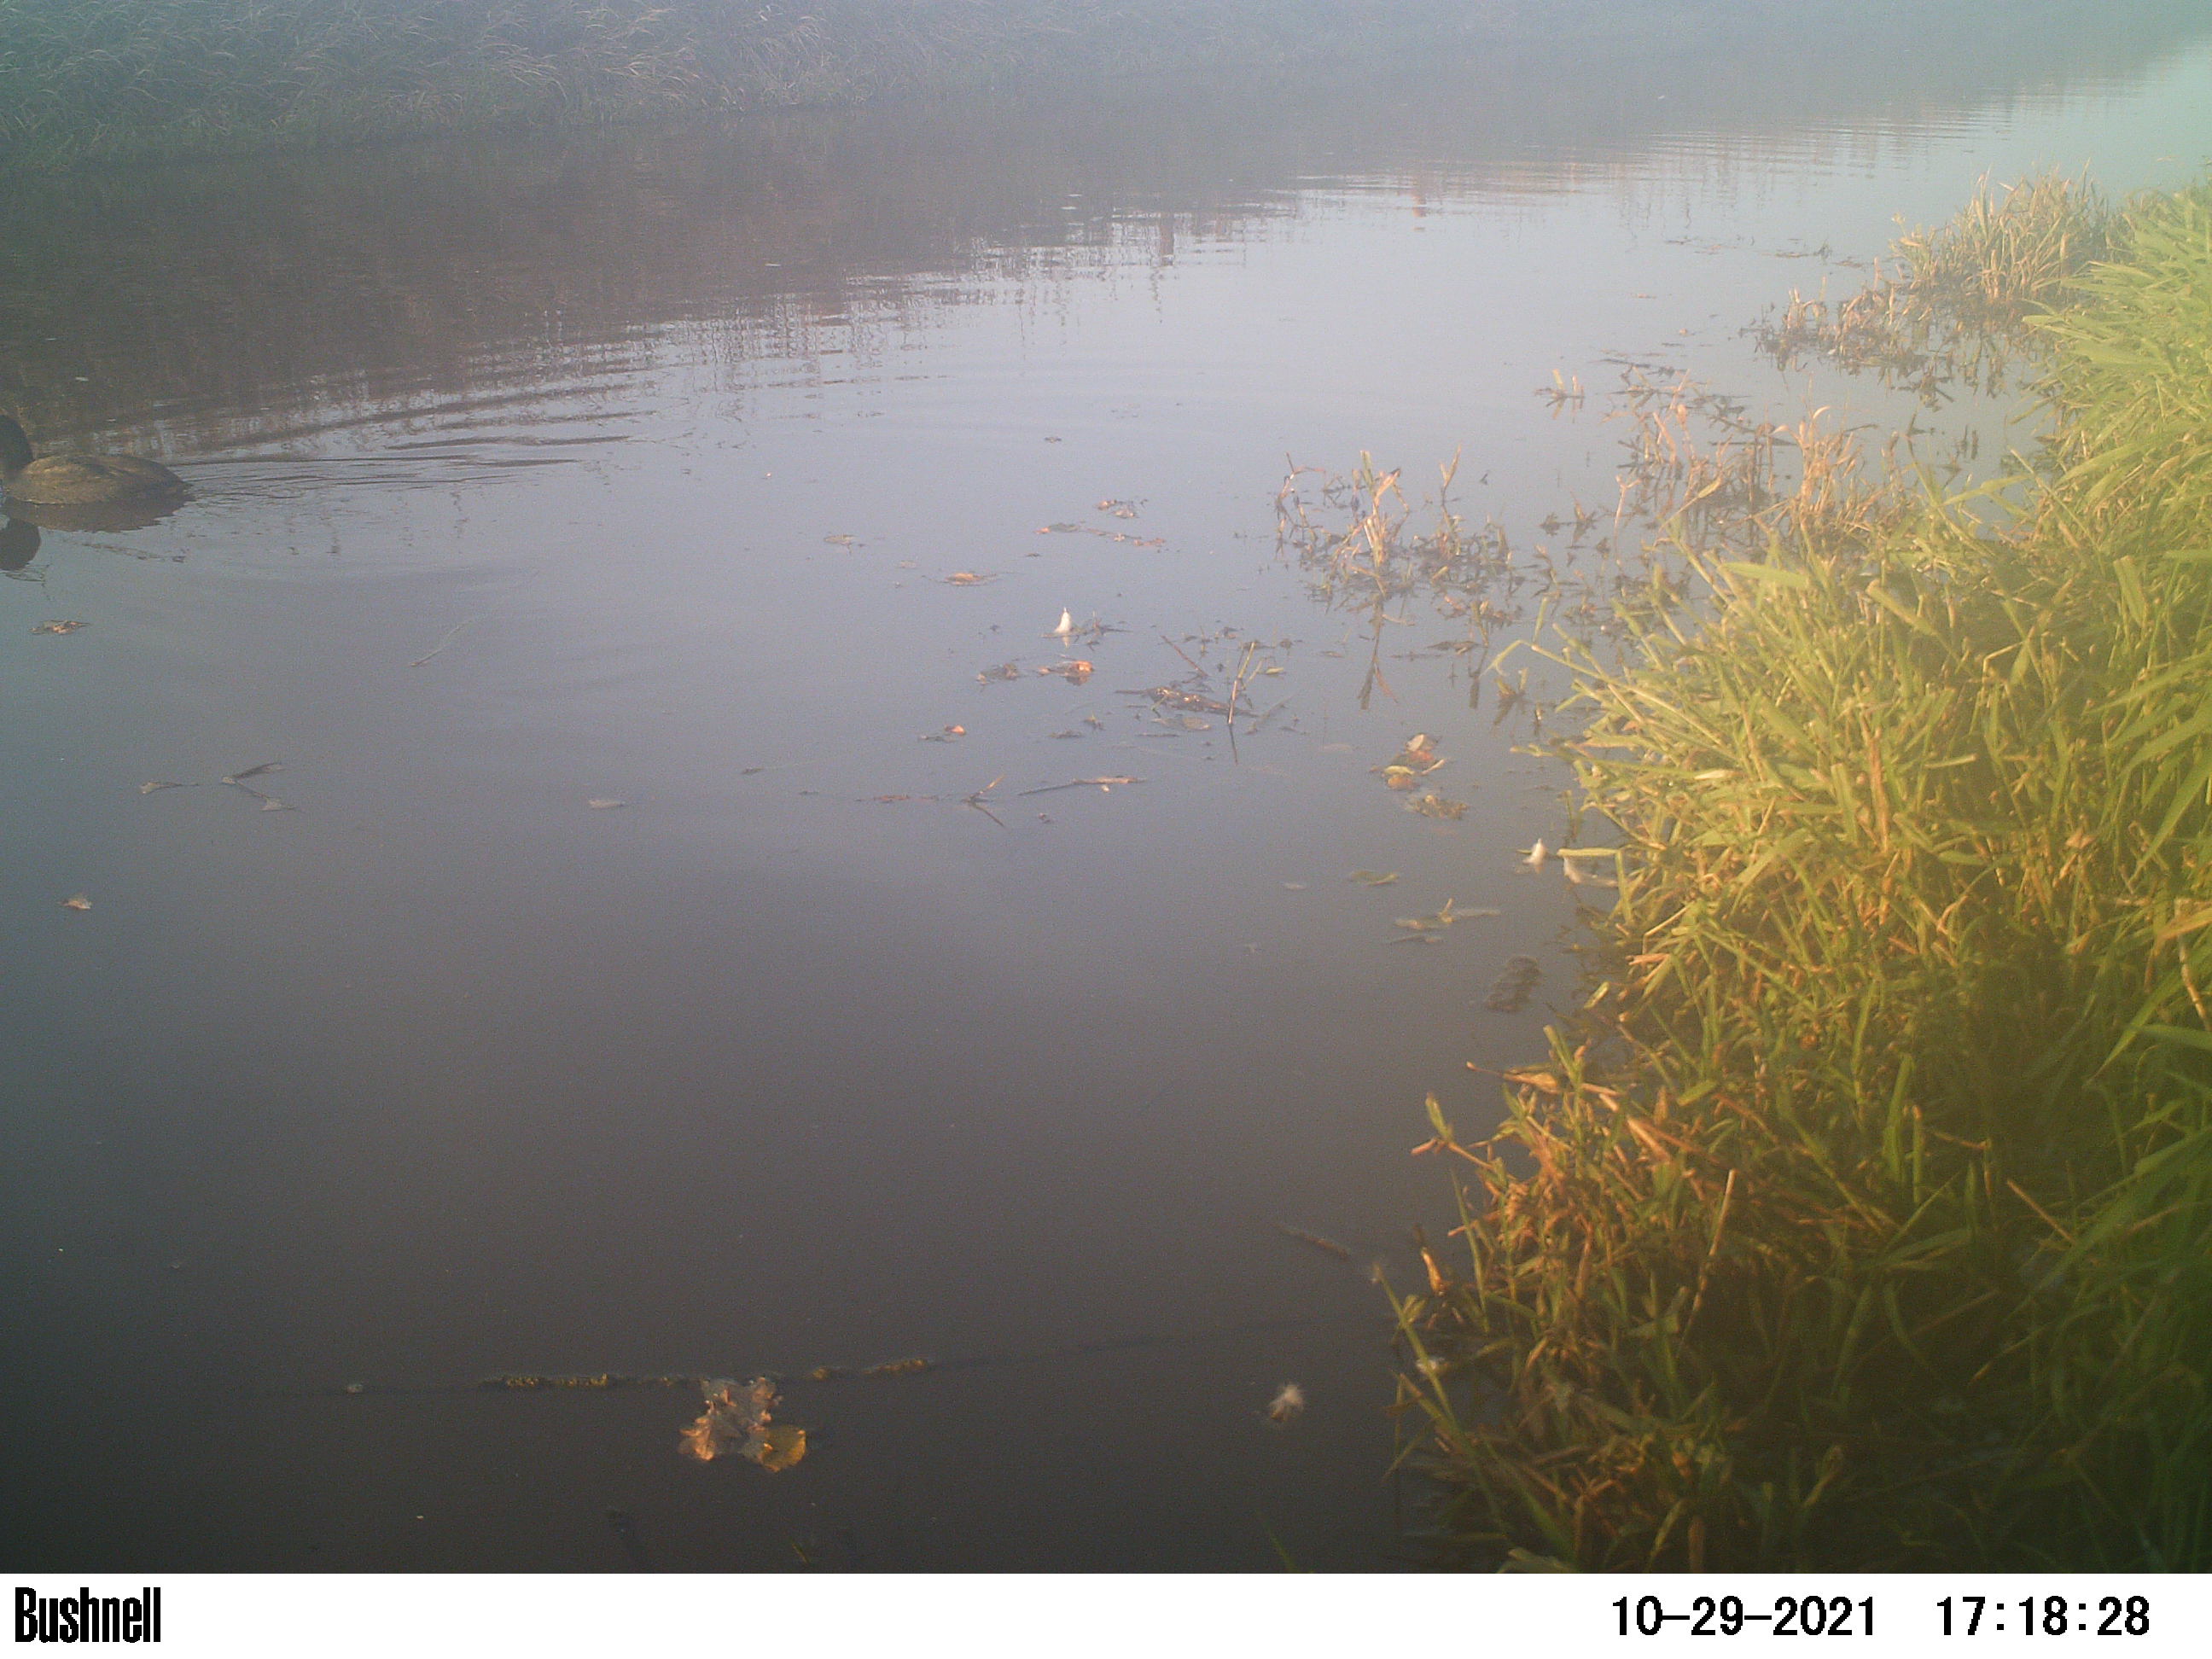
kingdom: Animalia
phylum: Chordata
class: Aves
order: Anseriformes
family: Anatidae
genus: Anas
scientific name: Anas
